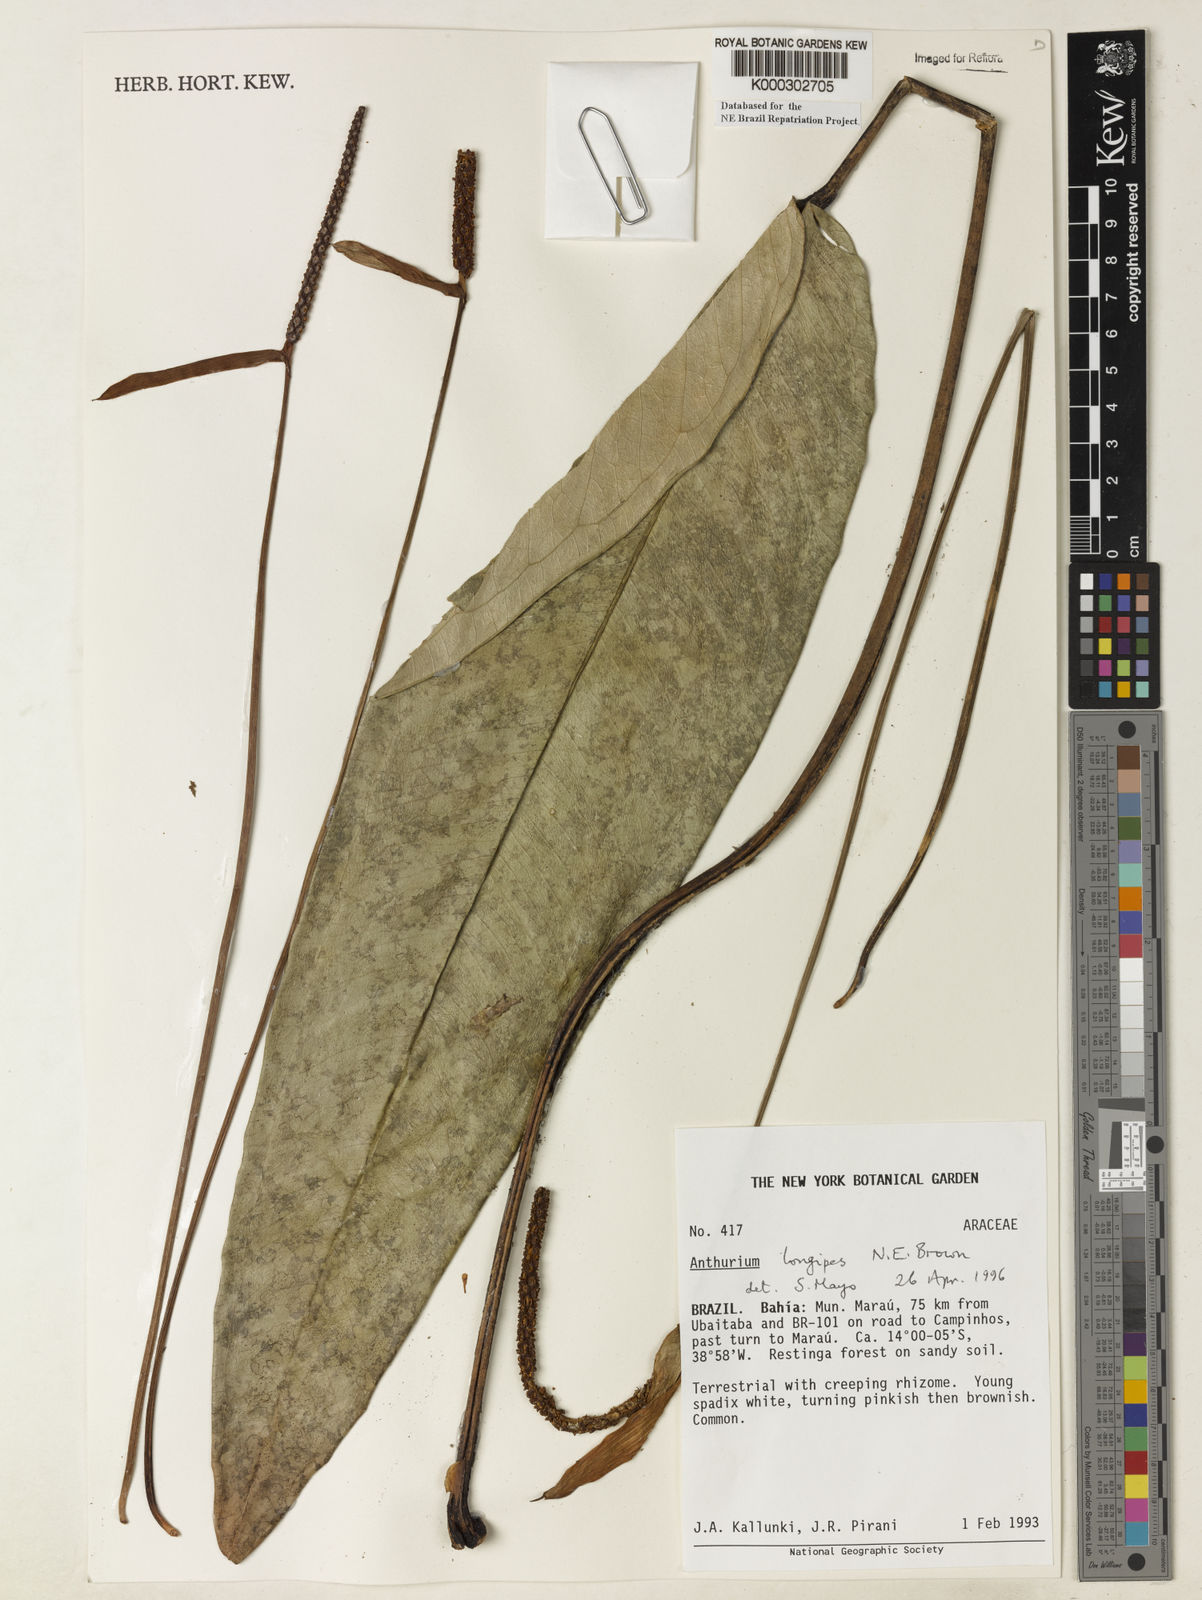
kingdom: Plantae
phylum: Tracheophyta
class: Liliopsida
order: Alismatales
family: Araceae
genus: Anthurium
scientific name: Anthurium longipes
